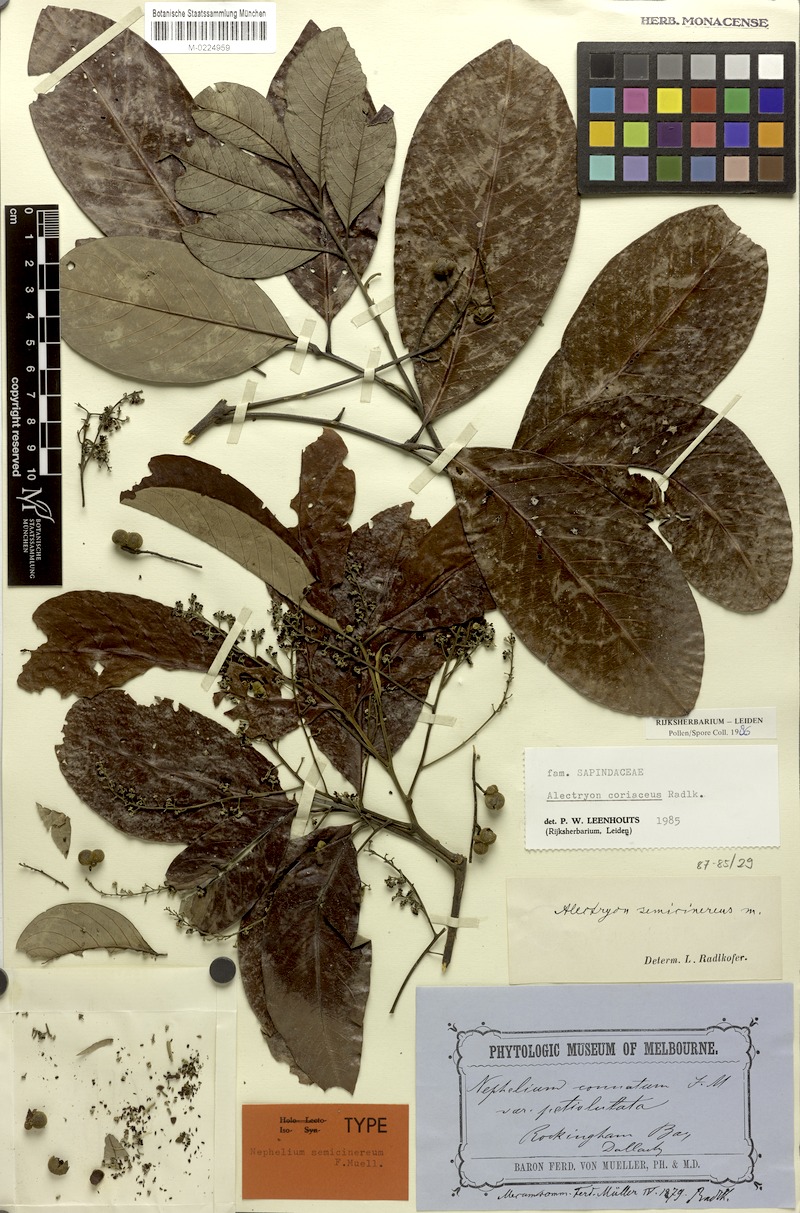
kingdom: Plantae
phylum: Tracheophyta
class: Magnoliopsida
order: Sapindales
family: Sapindaceae
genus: Alectryon
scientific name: Alectryon coriaceus
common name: Beach alectryon
